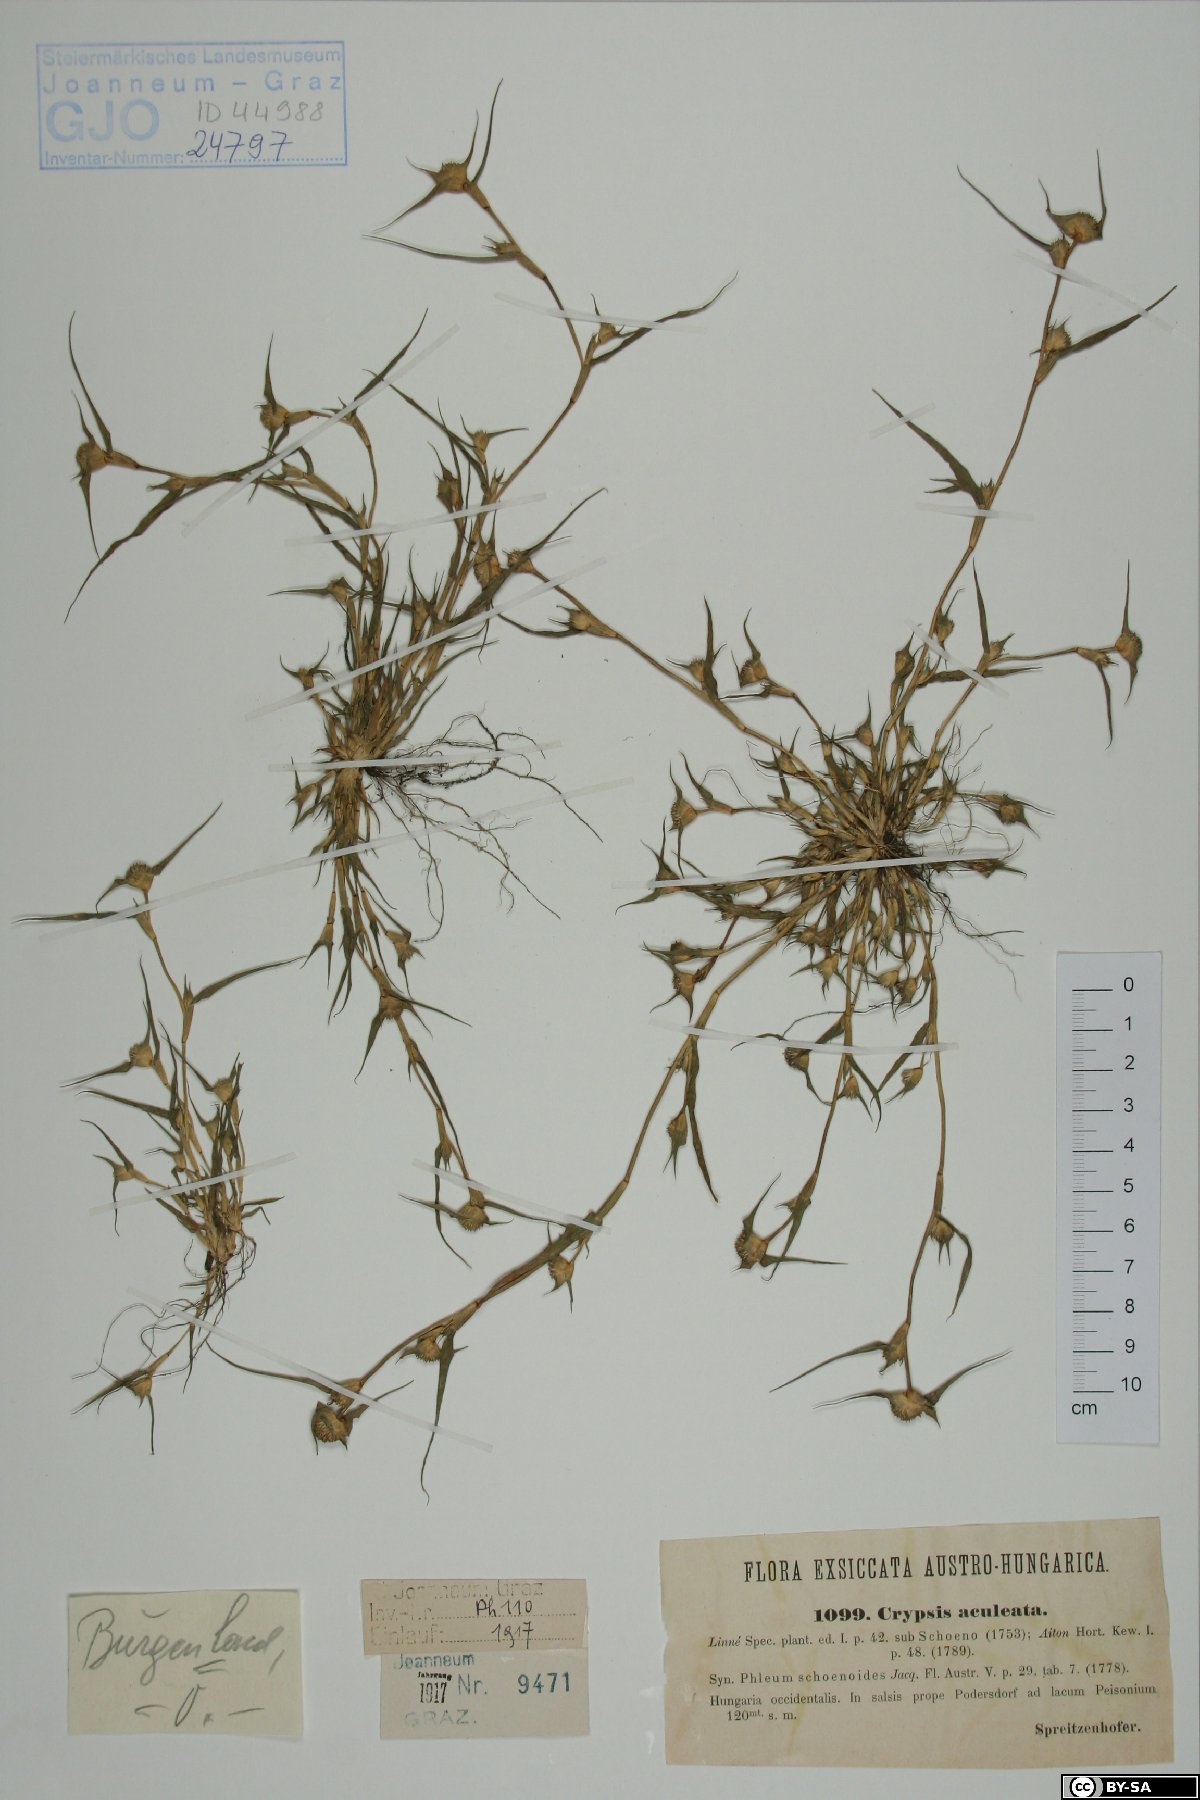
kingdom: Plantae
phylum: Tracheophyta
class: Liliopsida
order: Poales
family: Poaceae
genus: Sporobolus
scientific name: Sporobolus aculeatus
